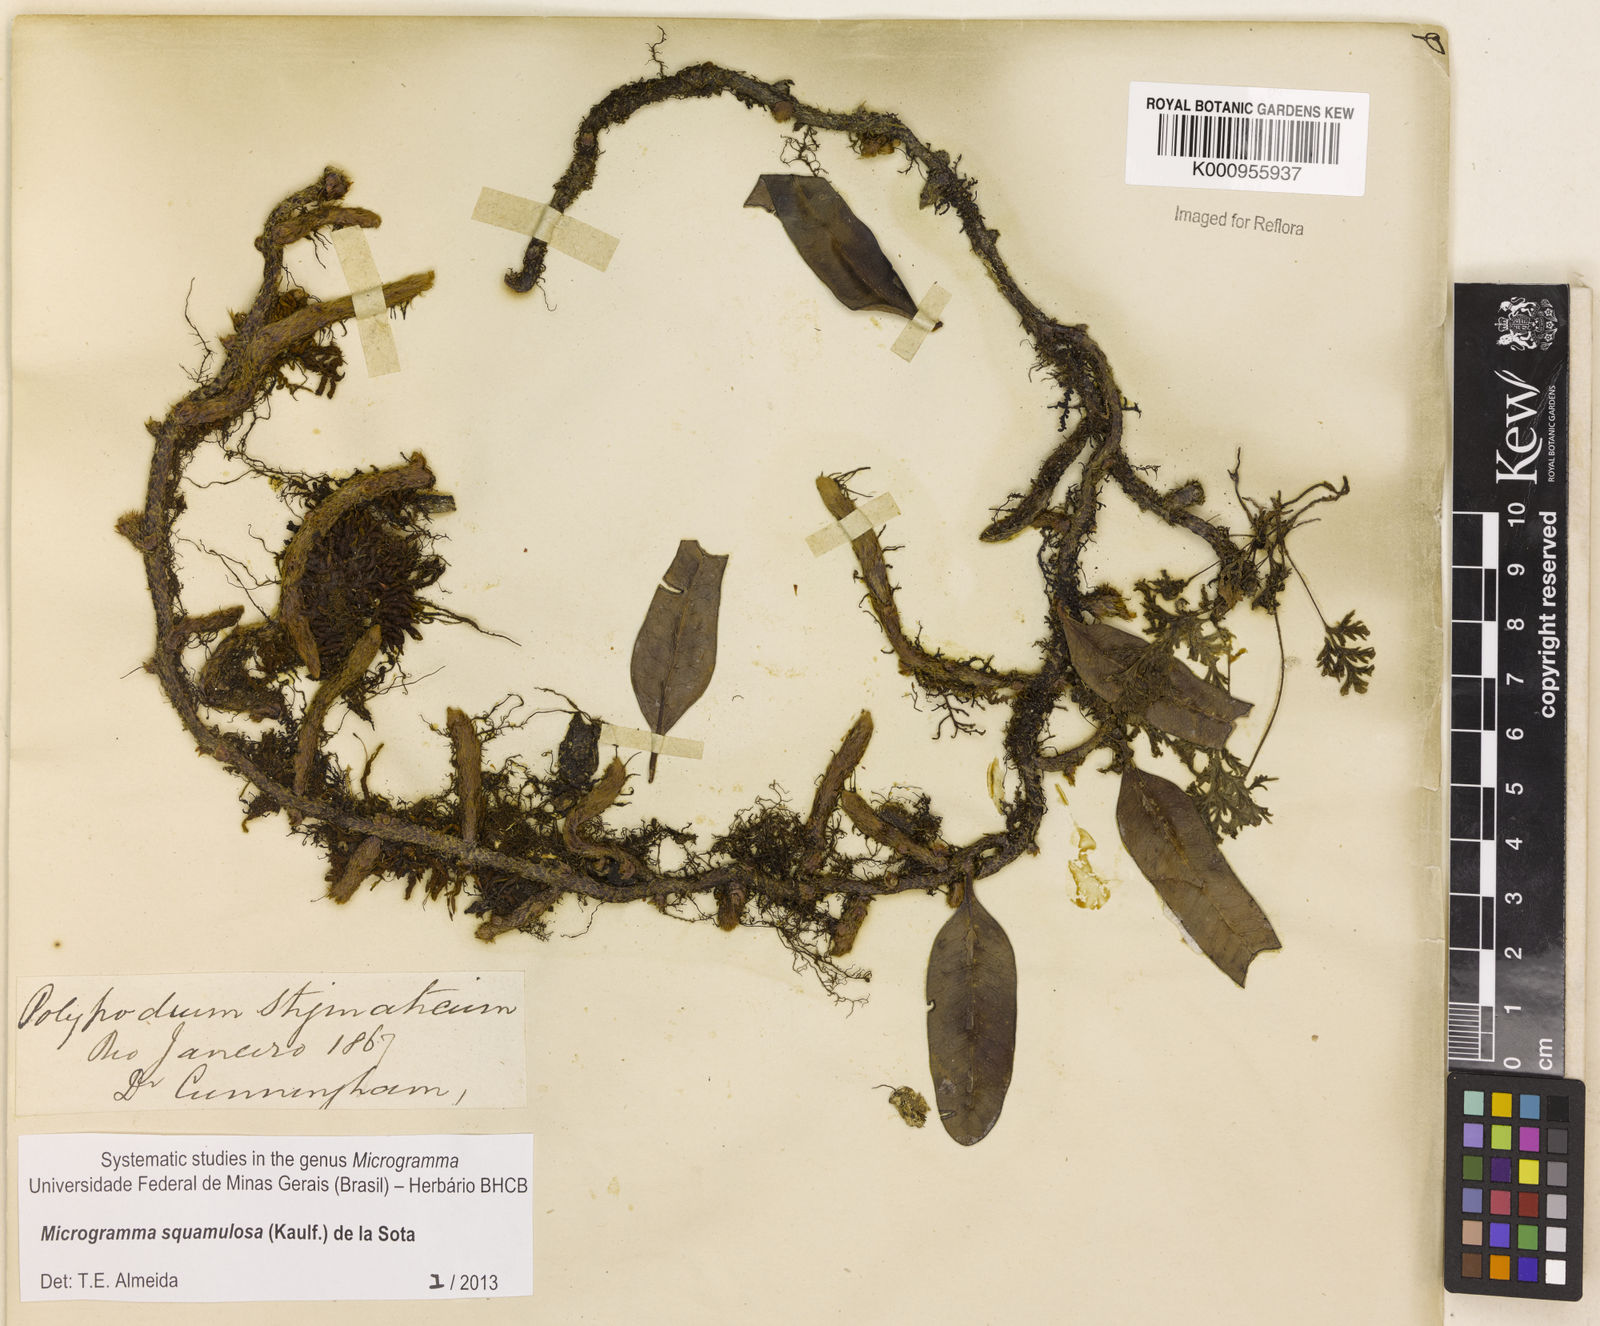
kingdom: Plantae
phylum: Tracheophyta
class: Polypodiopsida
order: Polypodiales
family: Polypodiaceae
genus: Microgramma
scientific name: Microgramma squamulosa
